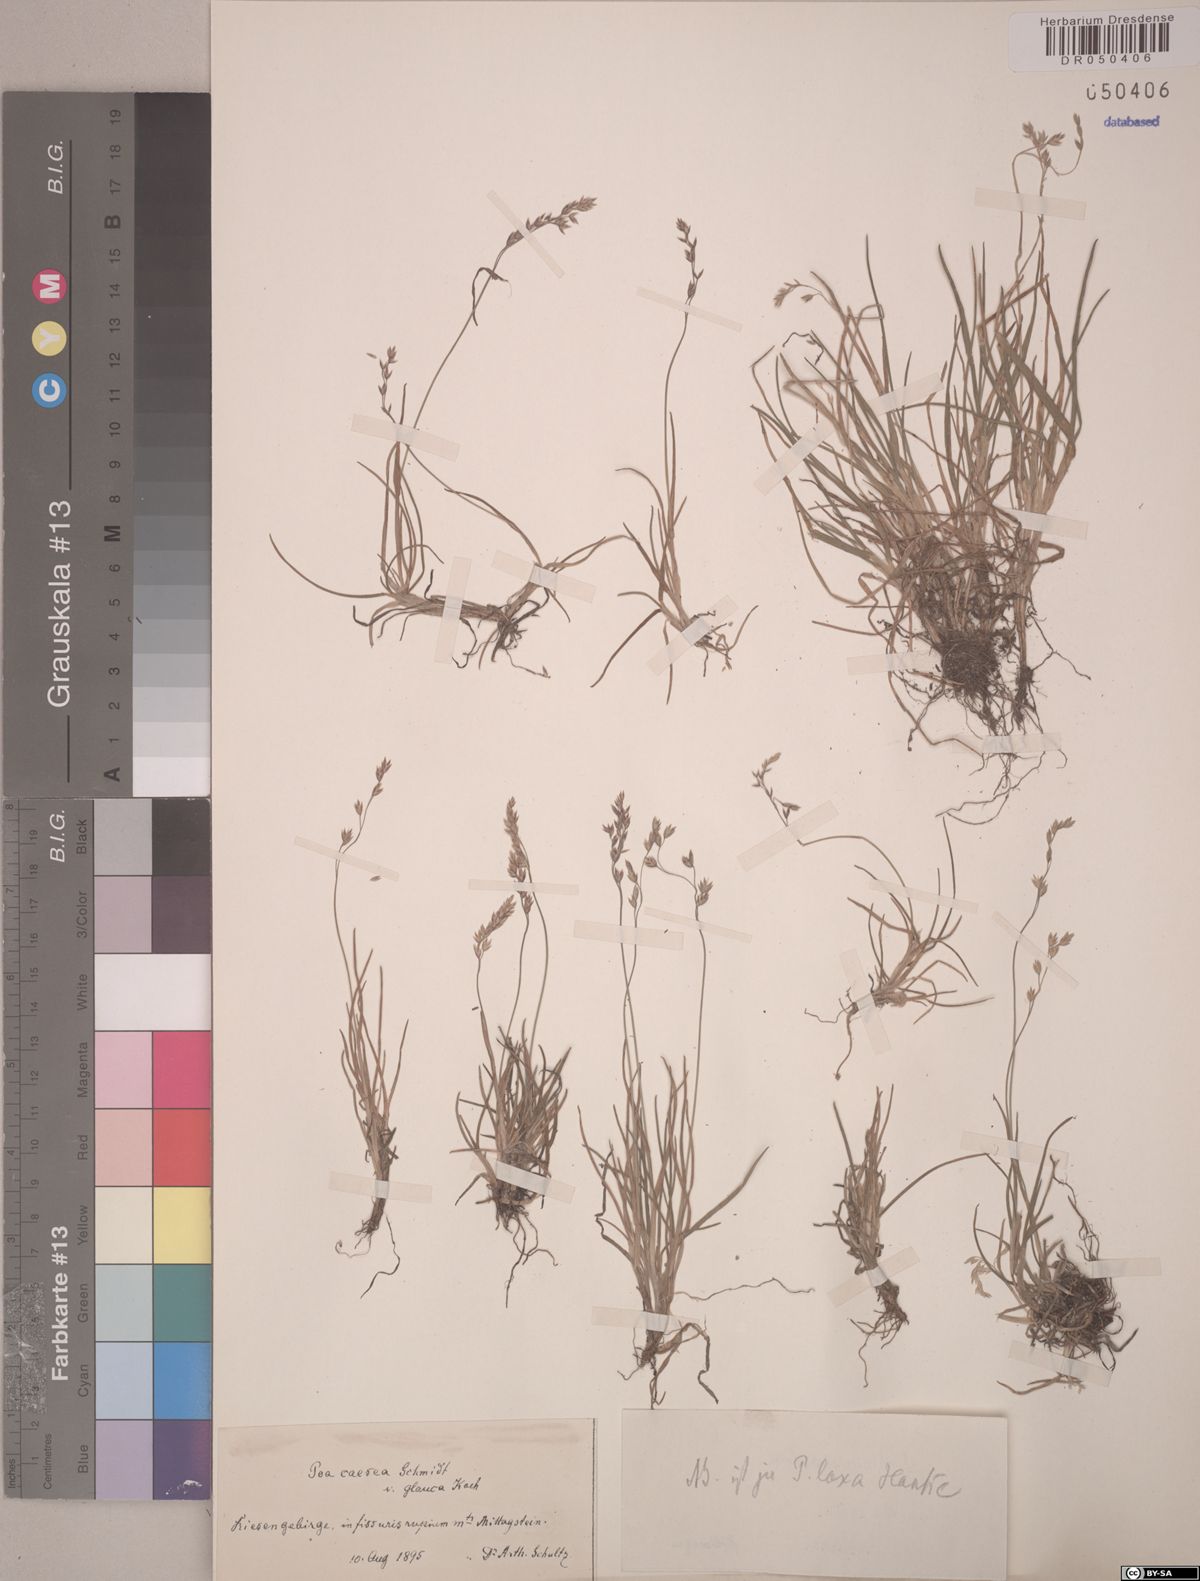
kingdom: Plantae
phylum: Tracheophyta
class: Liliopsida
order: Poales
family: Poaceae
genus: Poa
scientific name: Poa laxa
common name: Lax bluegrass
